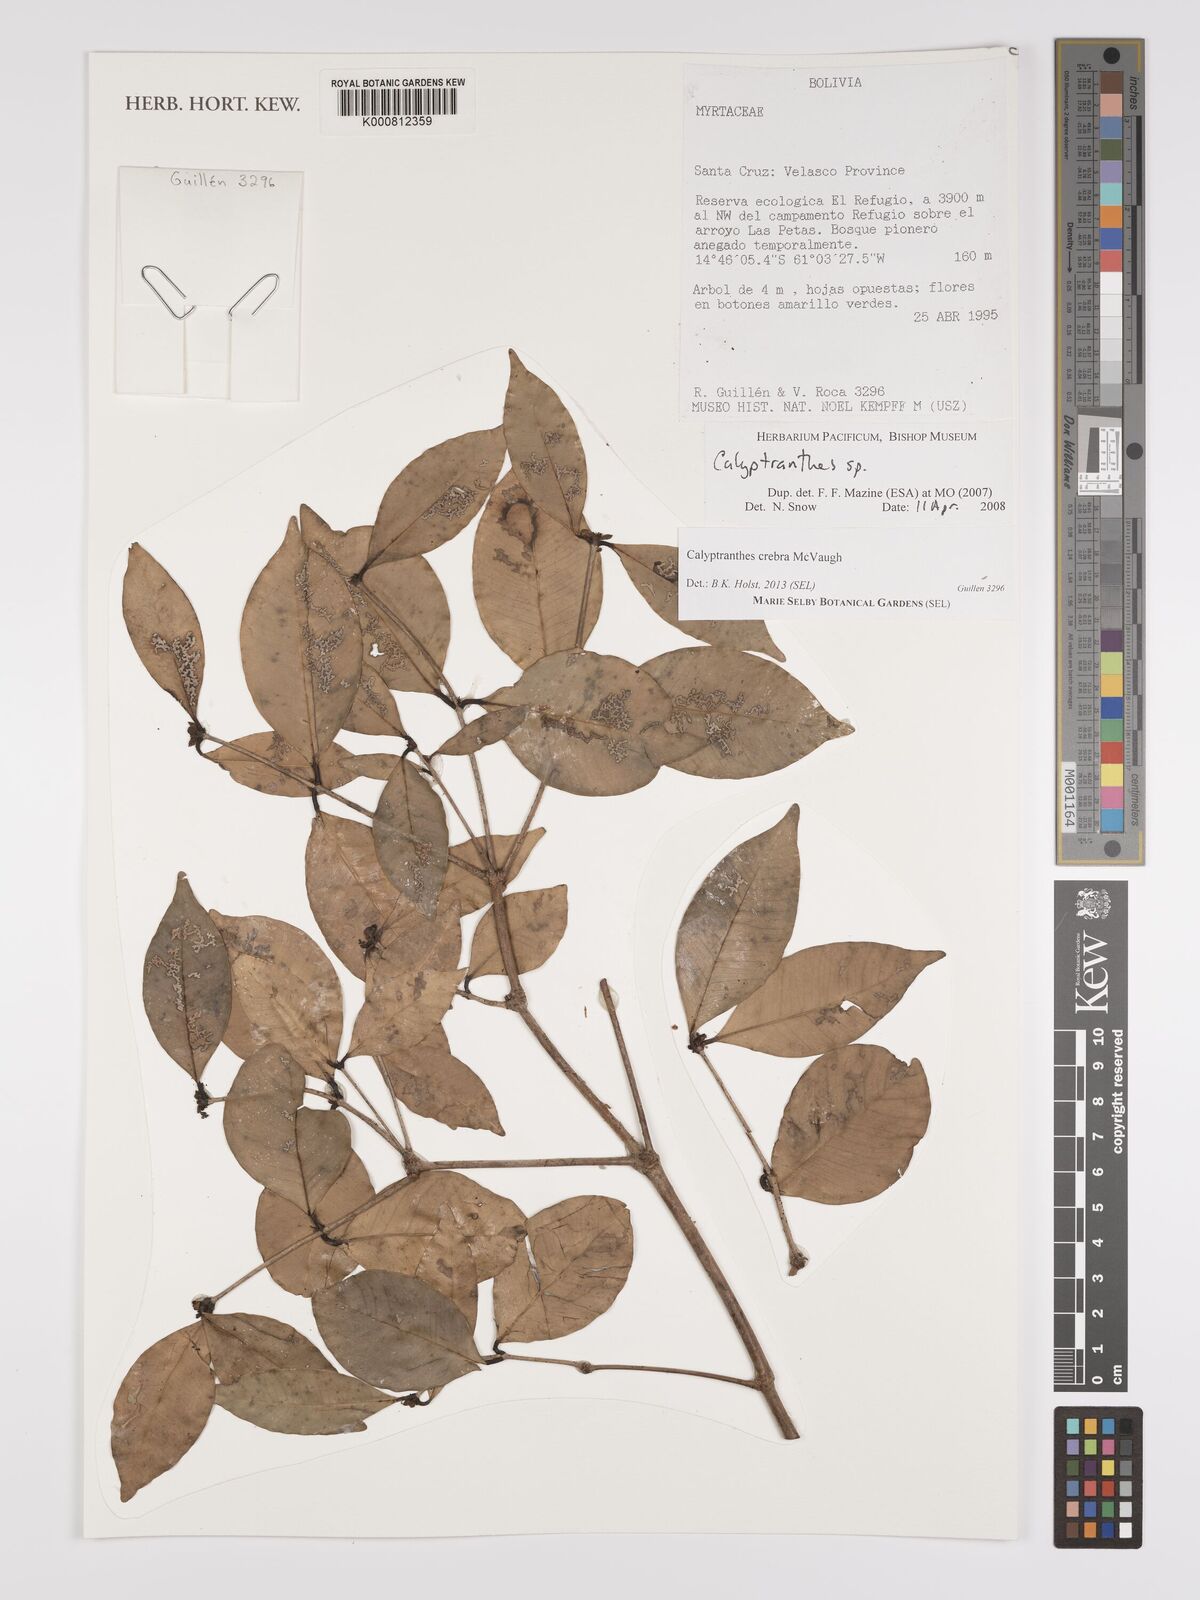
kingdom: Plantae
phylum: Tracheophyta
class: Magnoliopsida
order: Myrtales
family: Myrtaceae
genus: Myrcia
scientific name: Myrcia crebra
